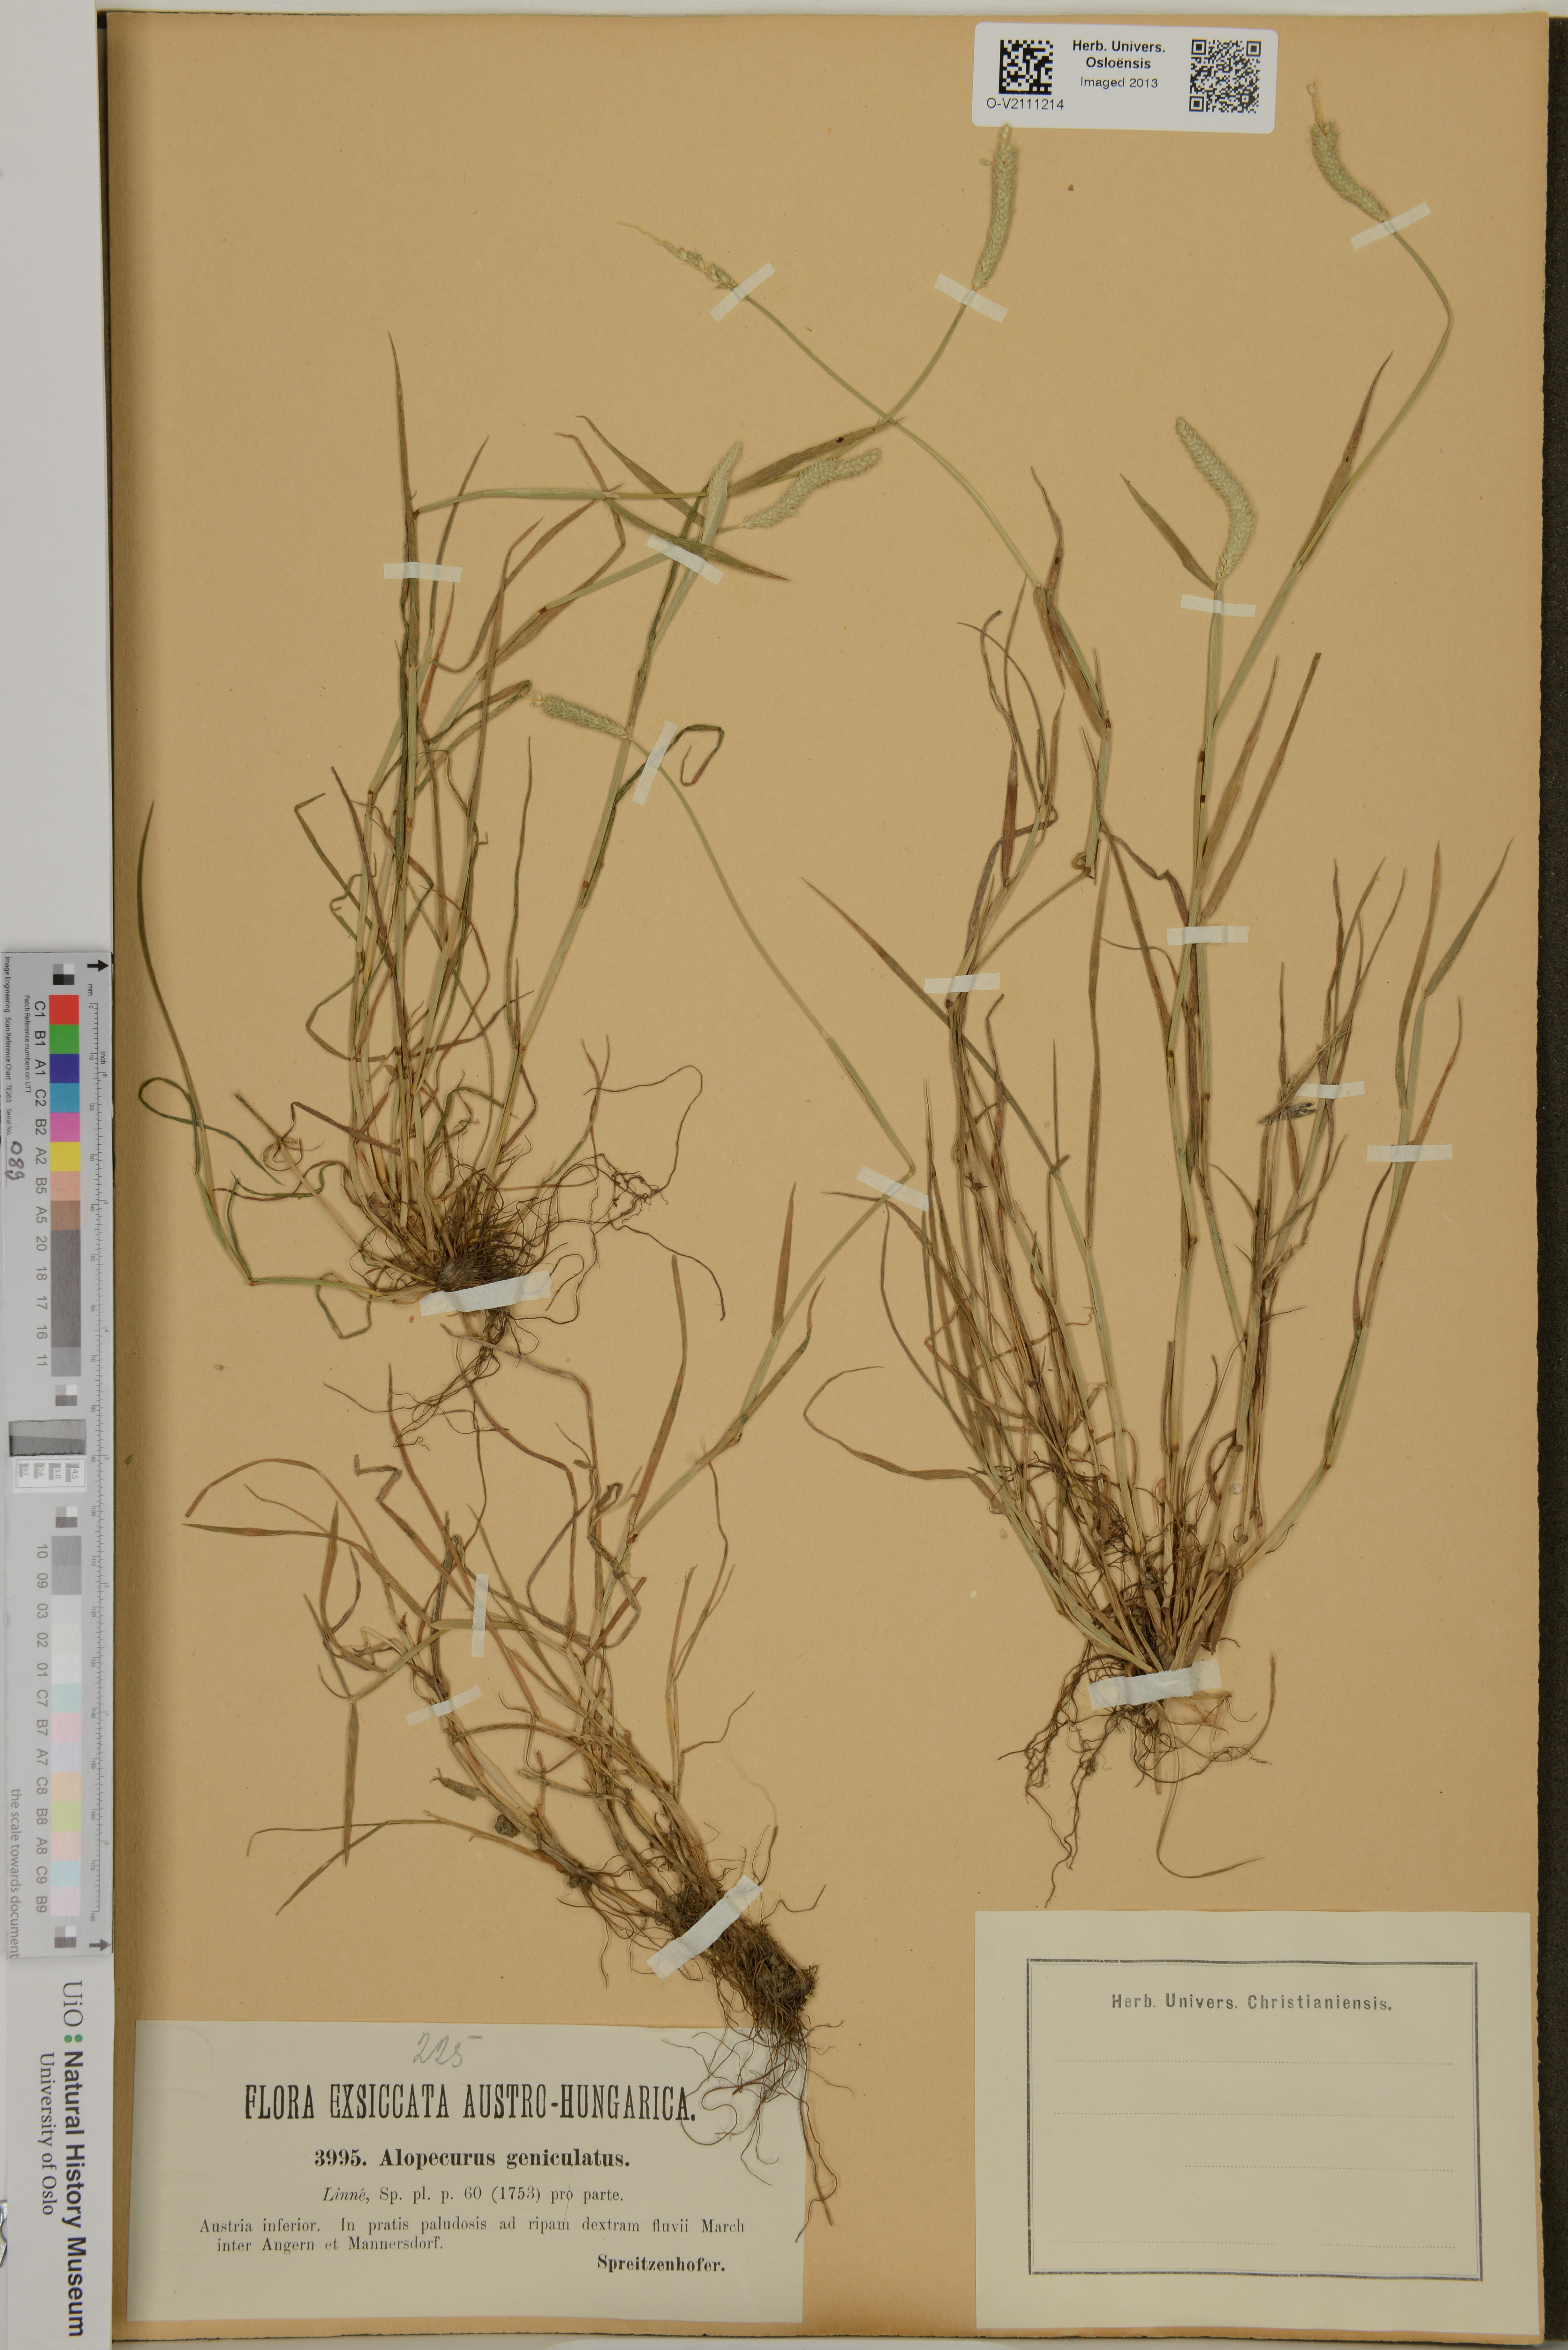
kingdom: Plantae
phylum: Tracheophyta
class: Liliopsida
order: Poales
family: Poaceae
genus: Alopecurus
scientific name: Alopecurus geniculatus
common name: Water foxtail
